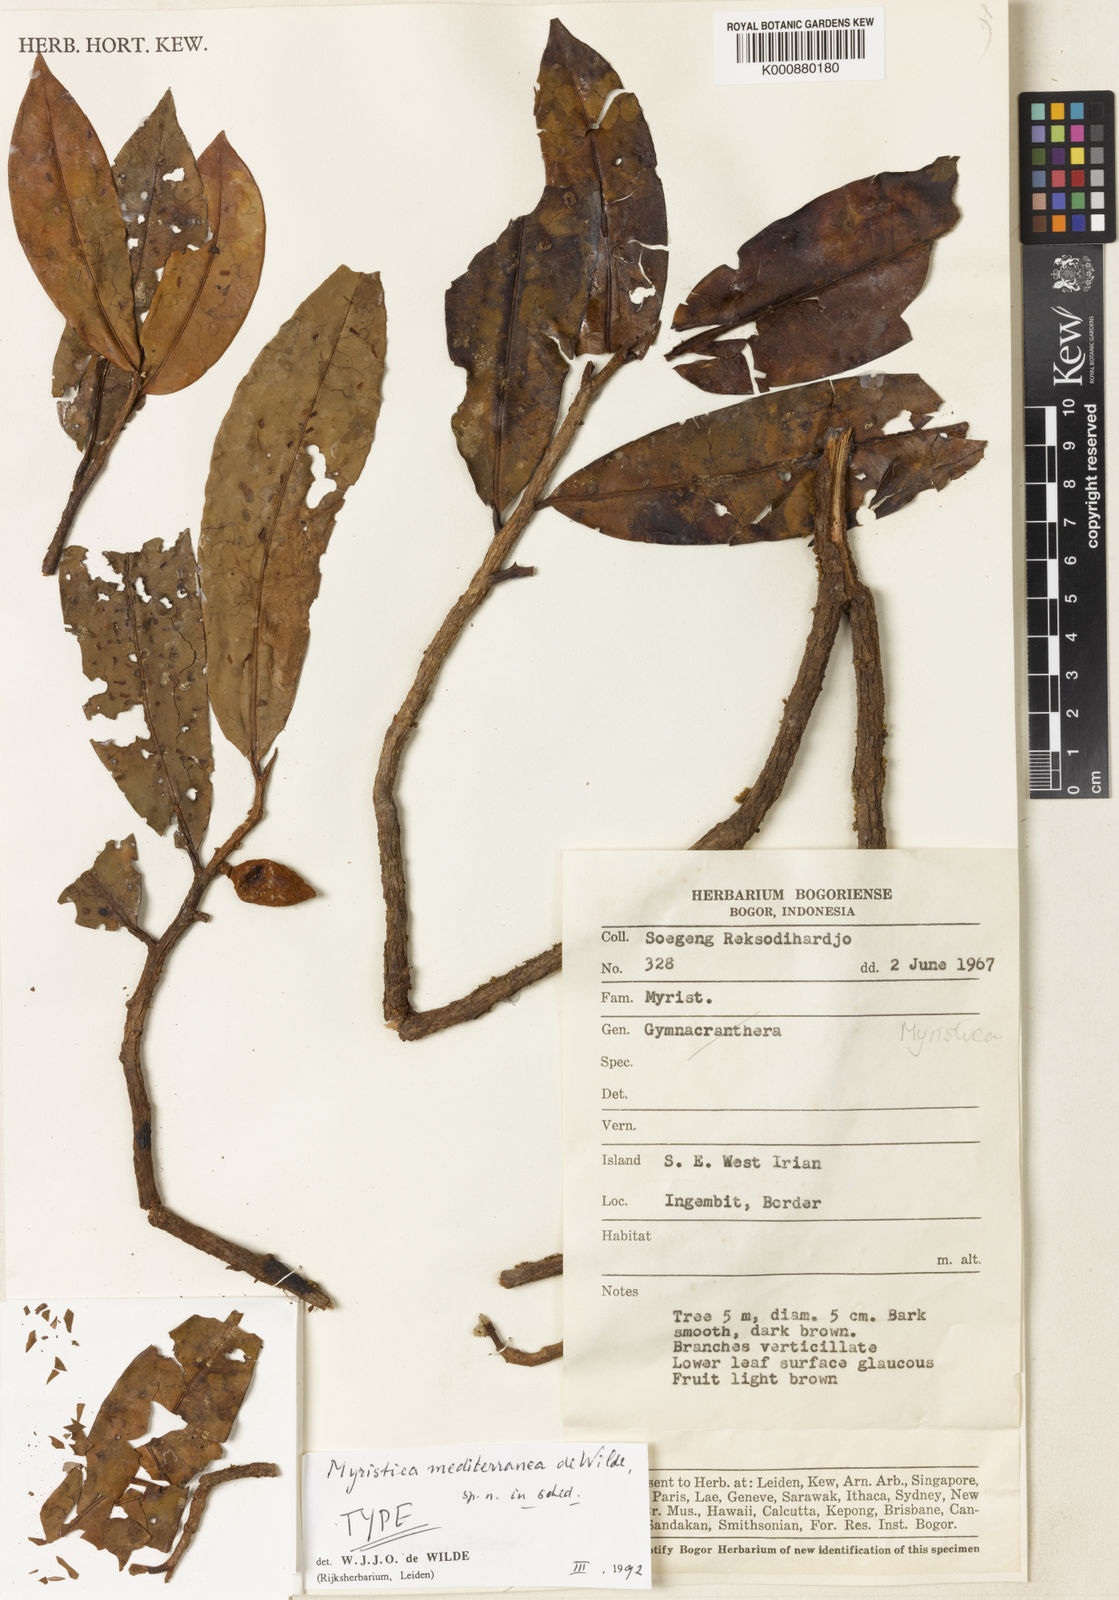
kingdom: Plantae
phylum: Tracheophyta
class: Magnoliopsida
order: Magnoliales
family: Myristicaceae
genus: Myristica
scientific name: Myristica mediterranea
